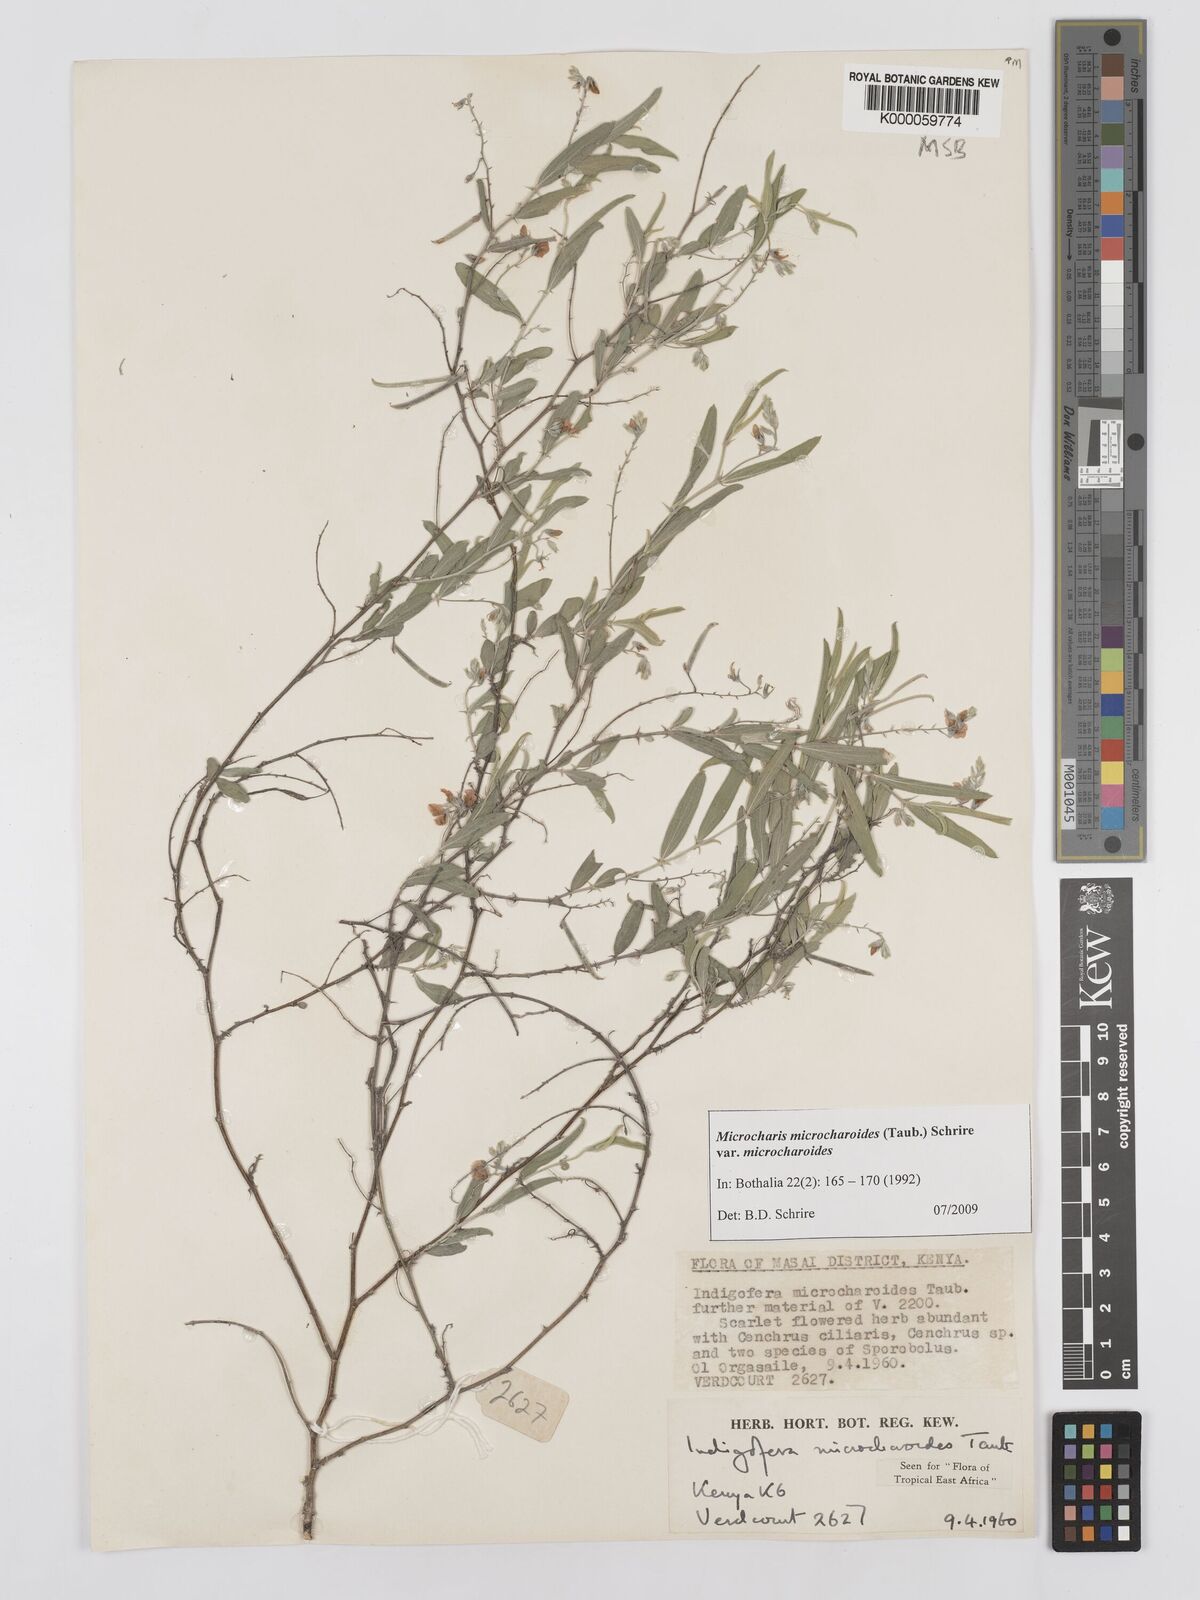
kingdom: Plantae
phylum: Tracheophyta
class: Magnoliopsida
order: Fabales
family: Fabaceae
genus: Microcharis
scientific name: Microcharis microcharoides
